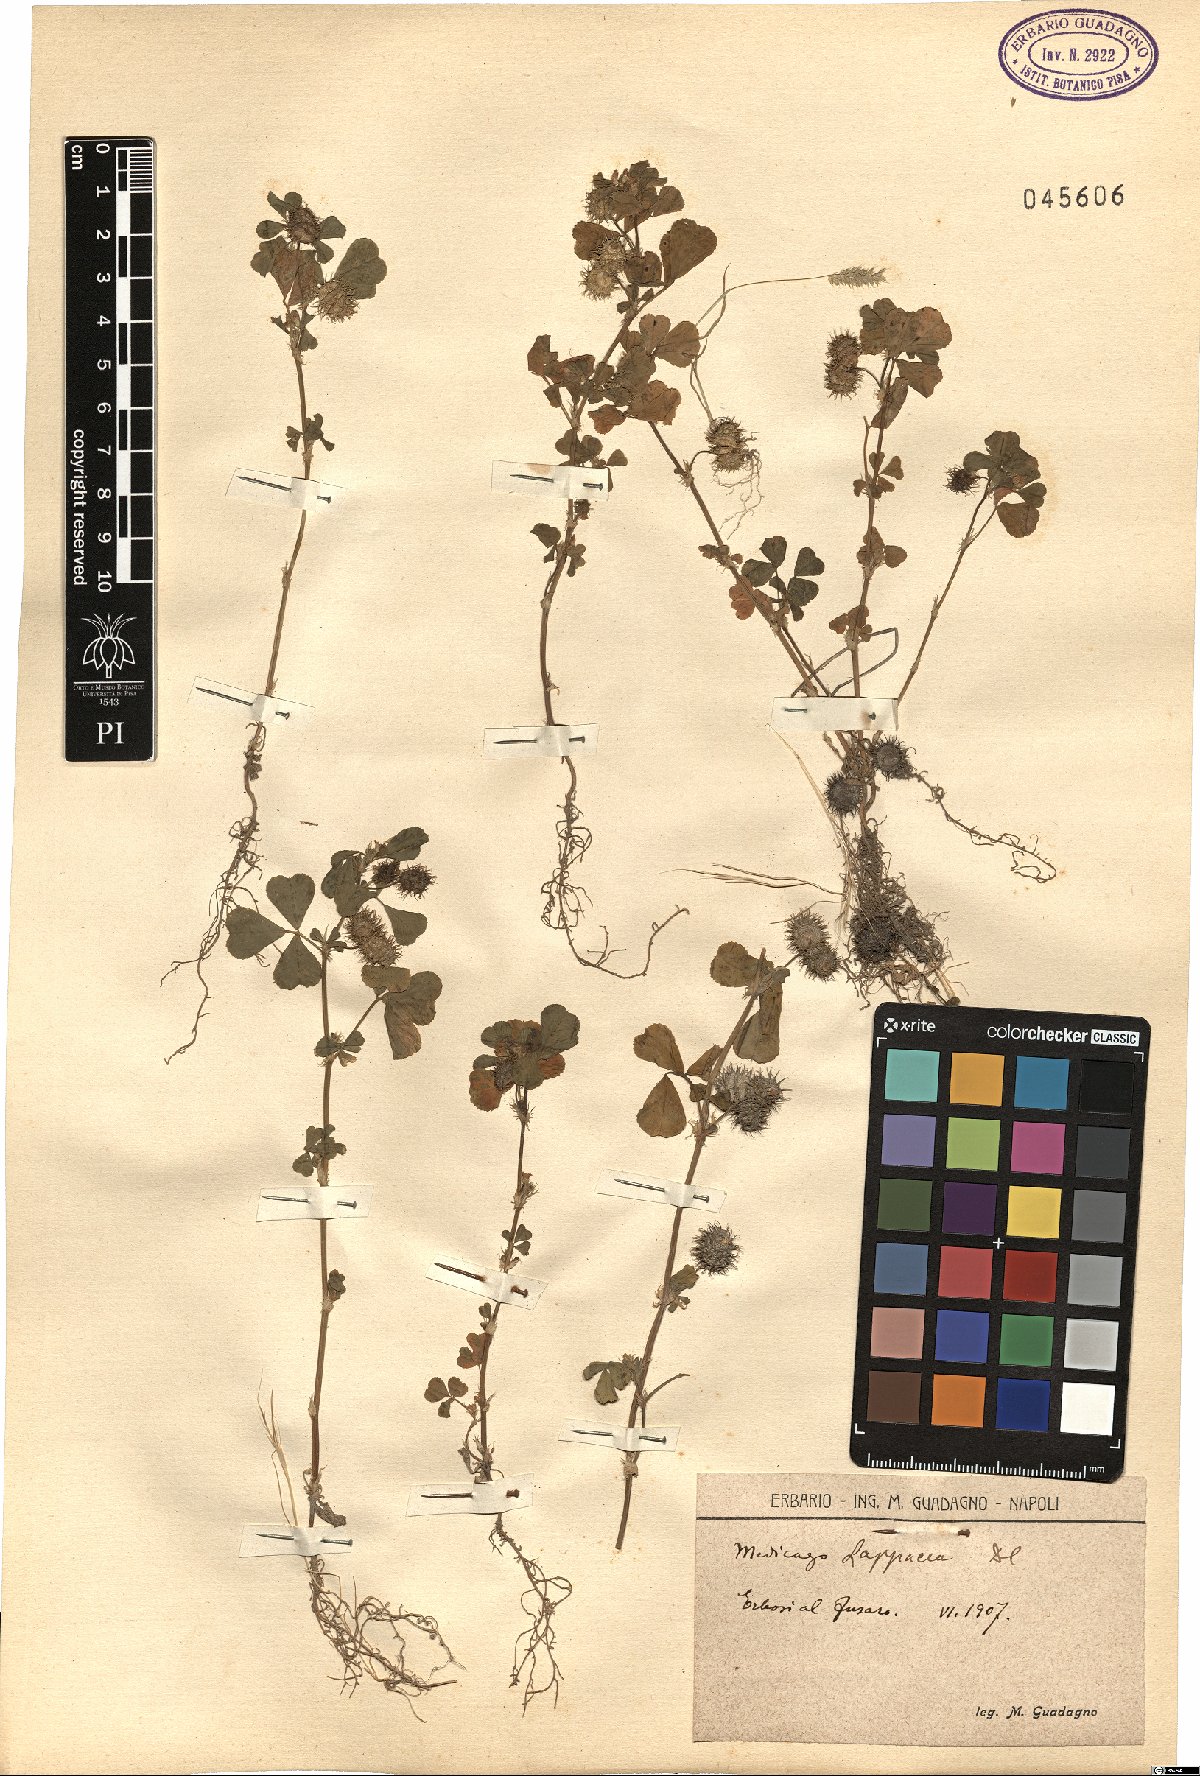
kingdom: Plantae
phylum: Tracheophyta
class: Magnoliopsida
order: Fabales
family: Fabaceae
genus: Medicago
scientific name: Medicago polymorpha
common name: Burclover
